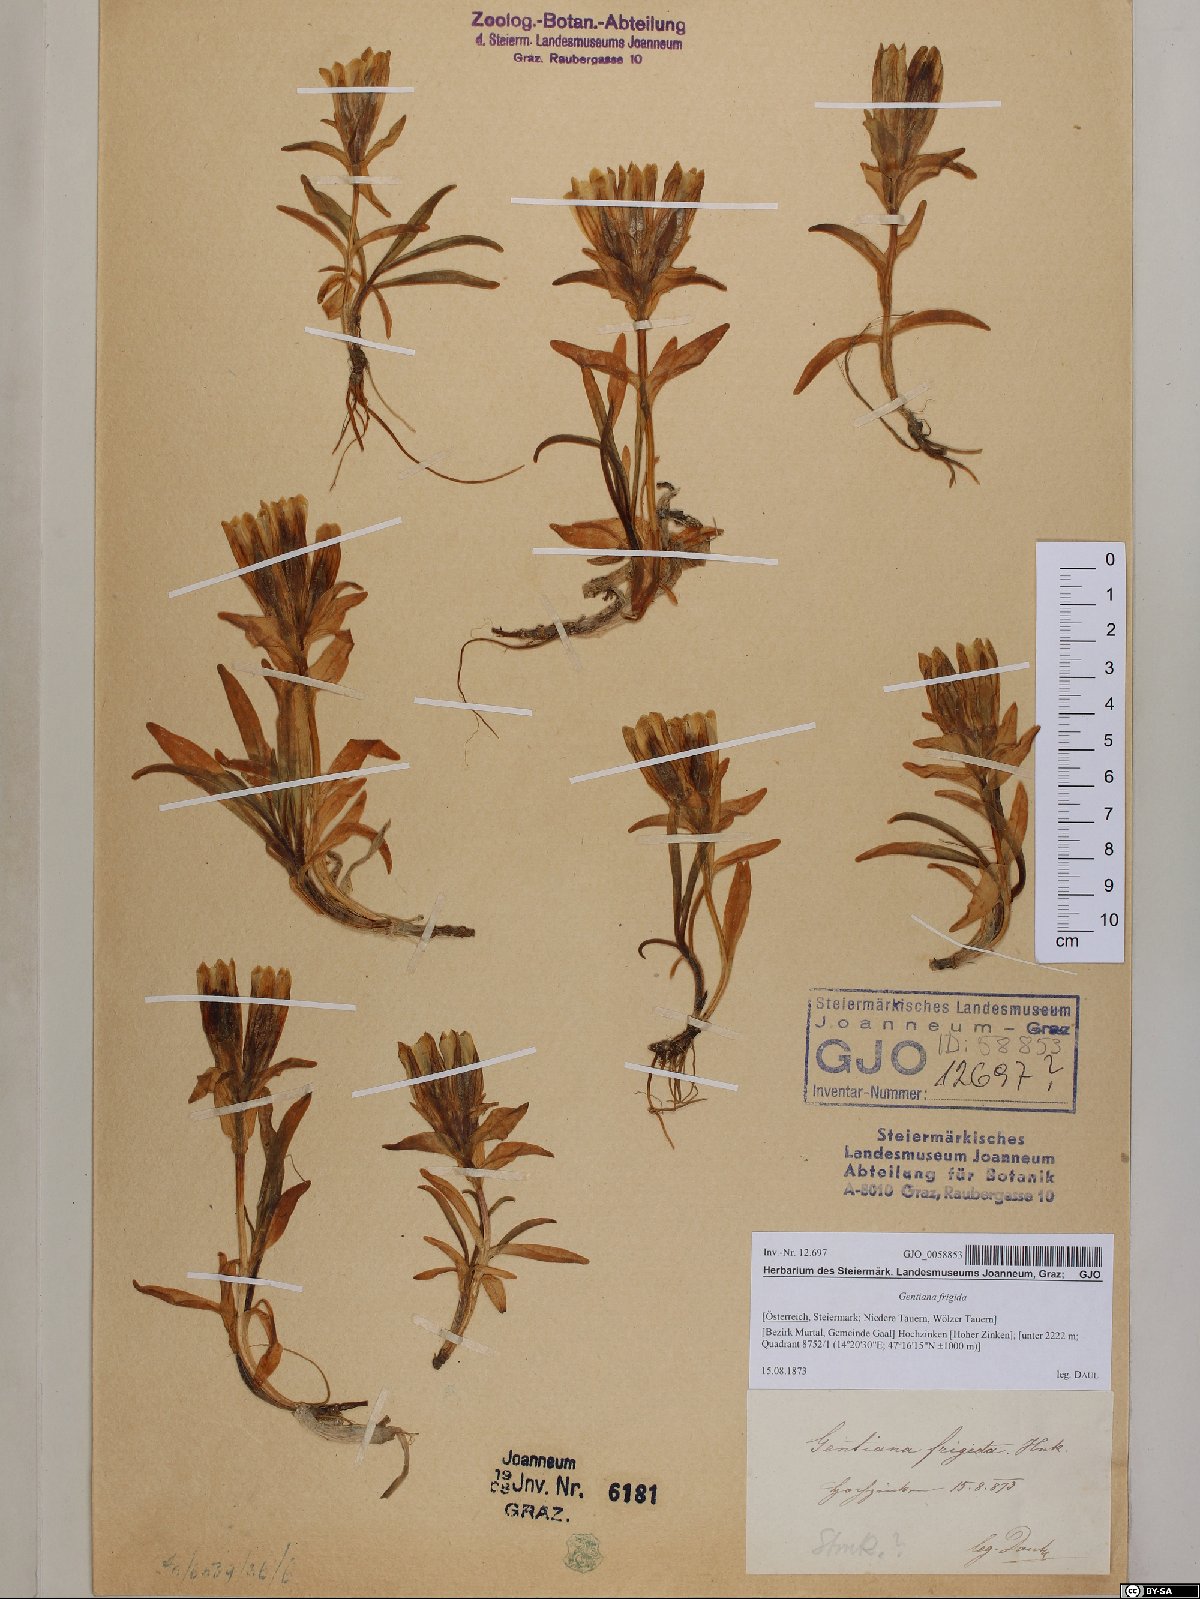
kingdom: Plantae
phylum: Tracheophyta
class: Magnoliopsida
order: Gentianales
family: Gentianaceae
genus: Gentiana
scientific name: Gentiana frigida
